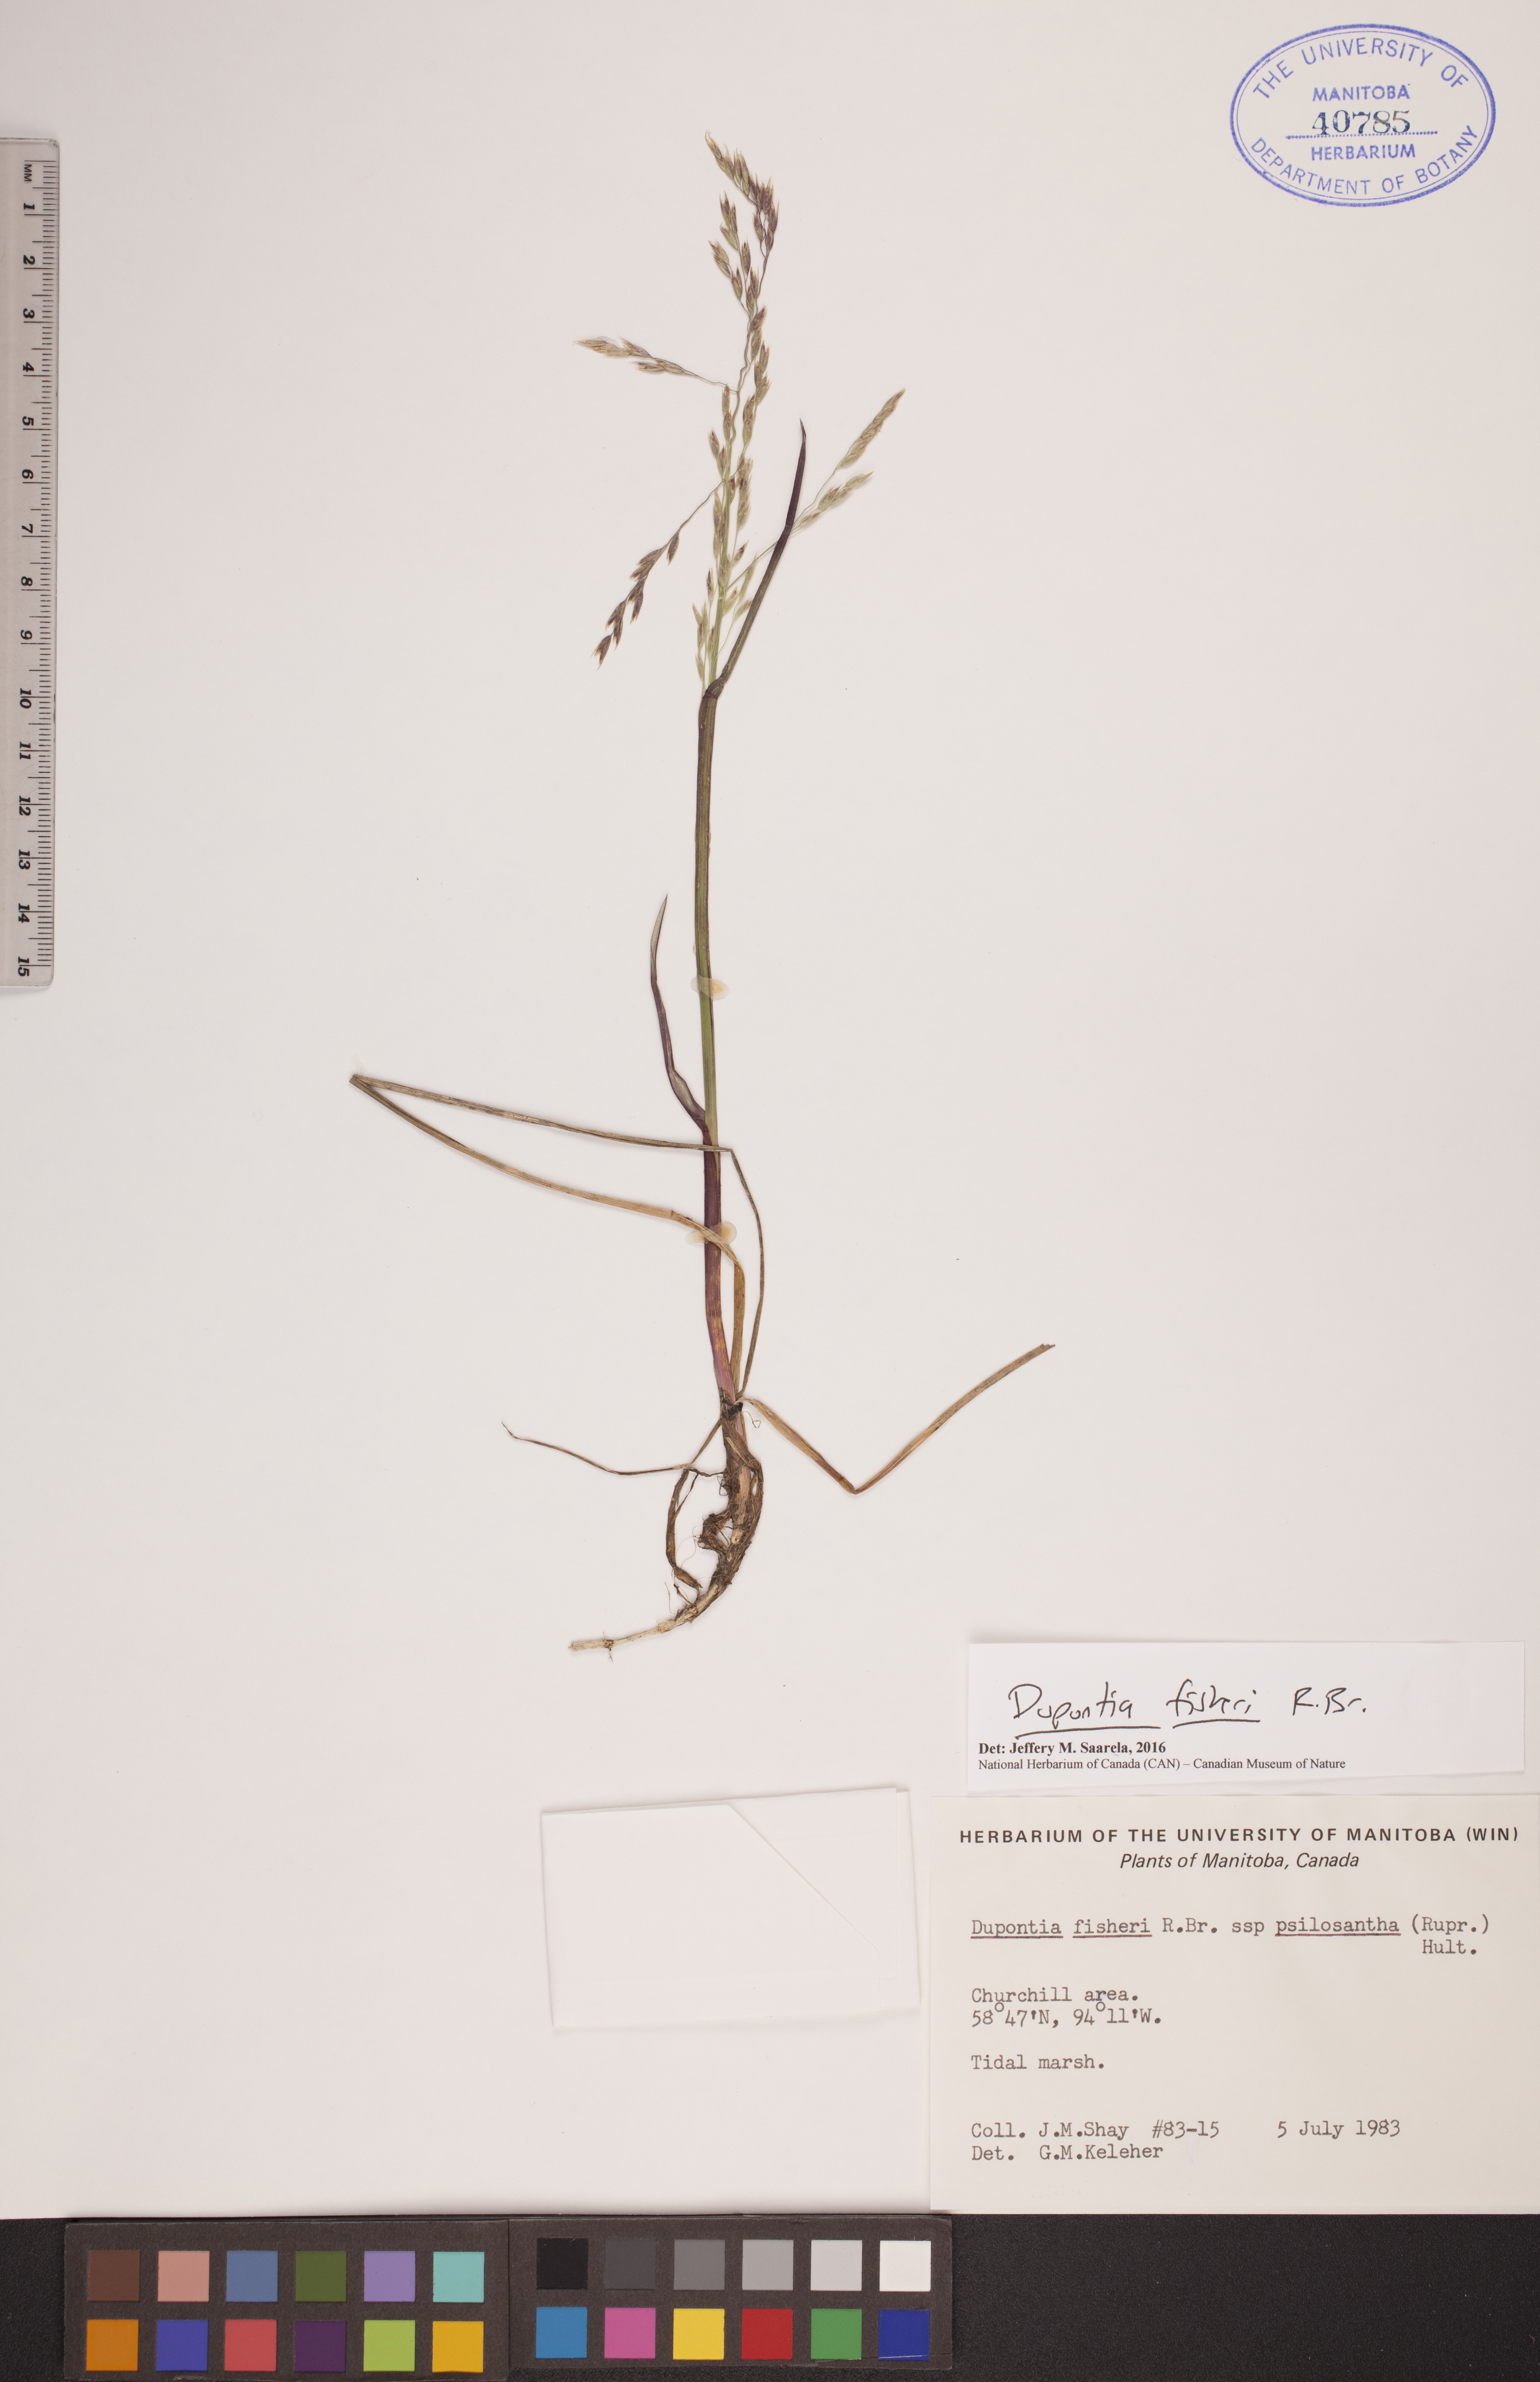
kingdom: Plantae
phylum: Tracheophyta
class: Liliopsida
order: Poales
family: Poaceae
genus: Dupontia
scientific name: Dupontia fisheri
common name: Tundra grass
